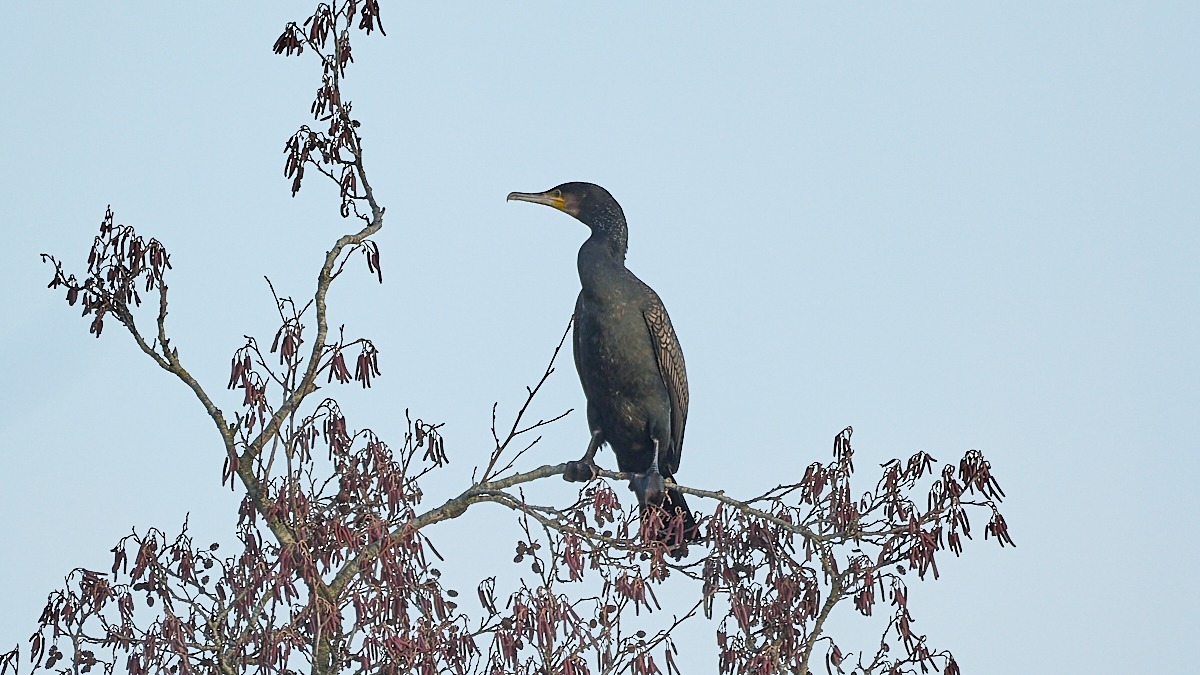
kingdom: Animalia
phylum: Chordata
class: Aves
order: Suliformes
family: Phalacrocoracidae
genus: Phalacrocorax
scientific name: Phalacrocorax carbo
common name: Skarv
